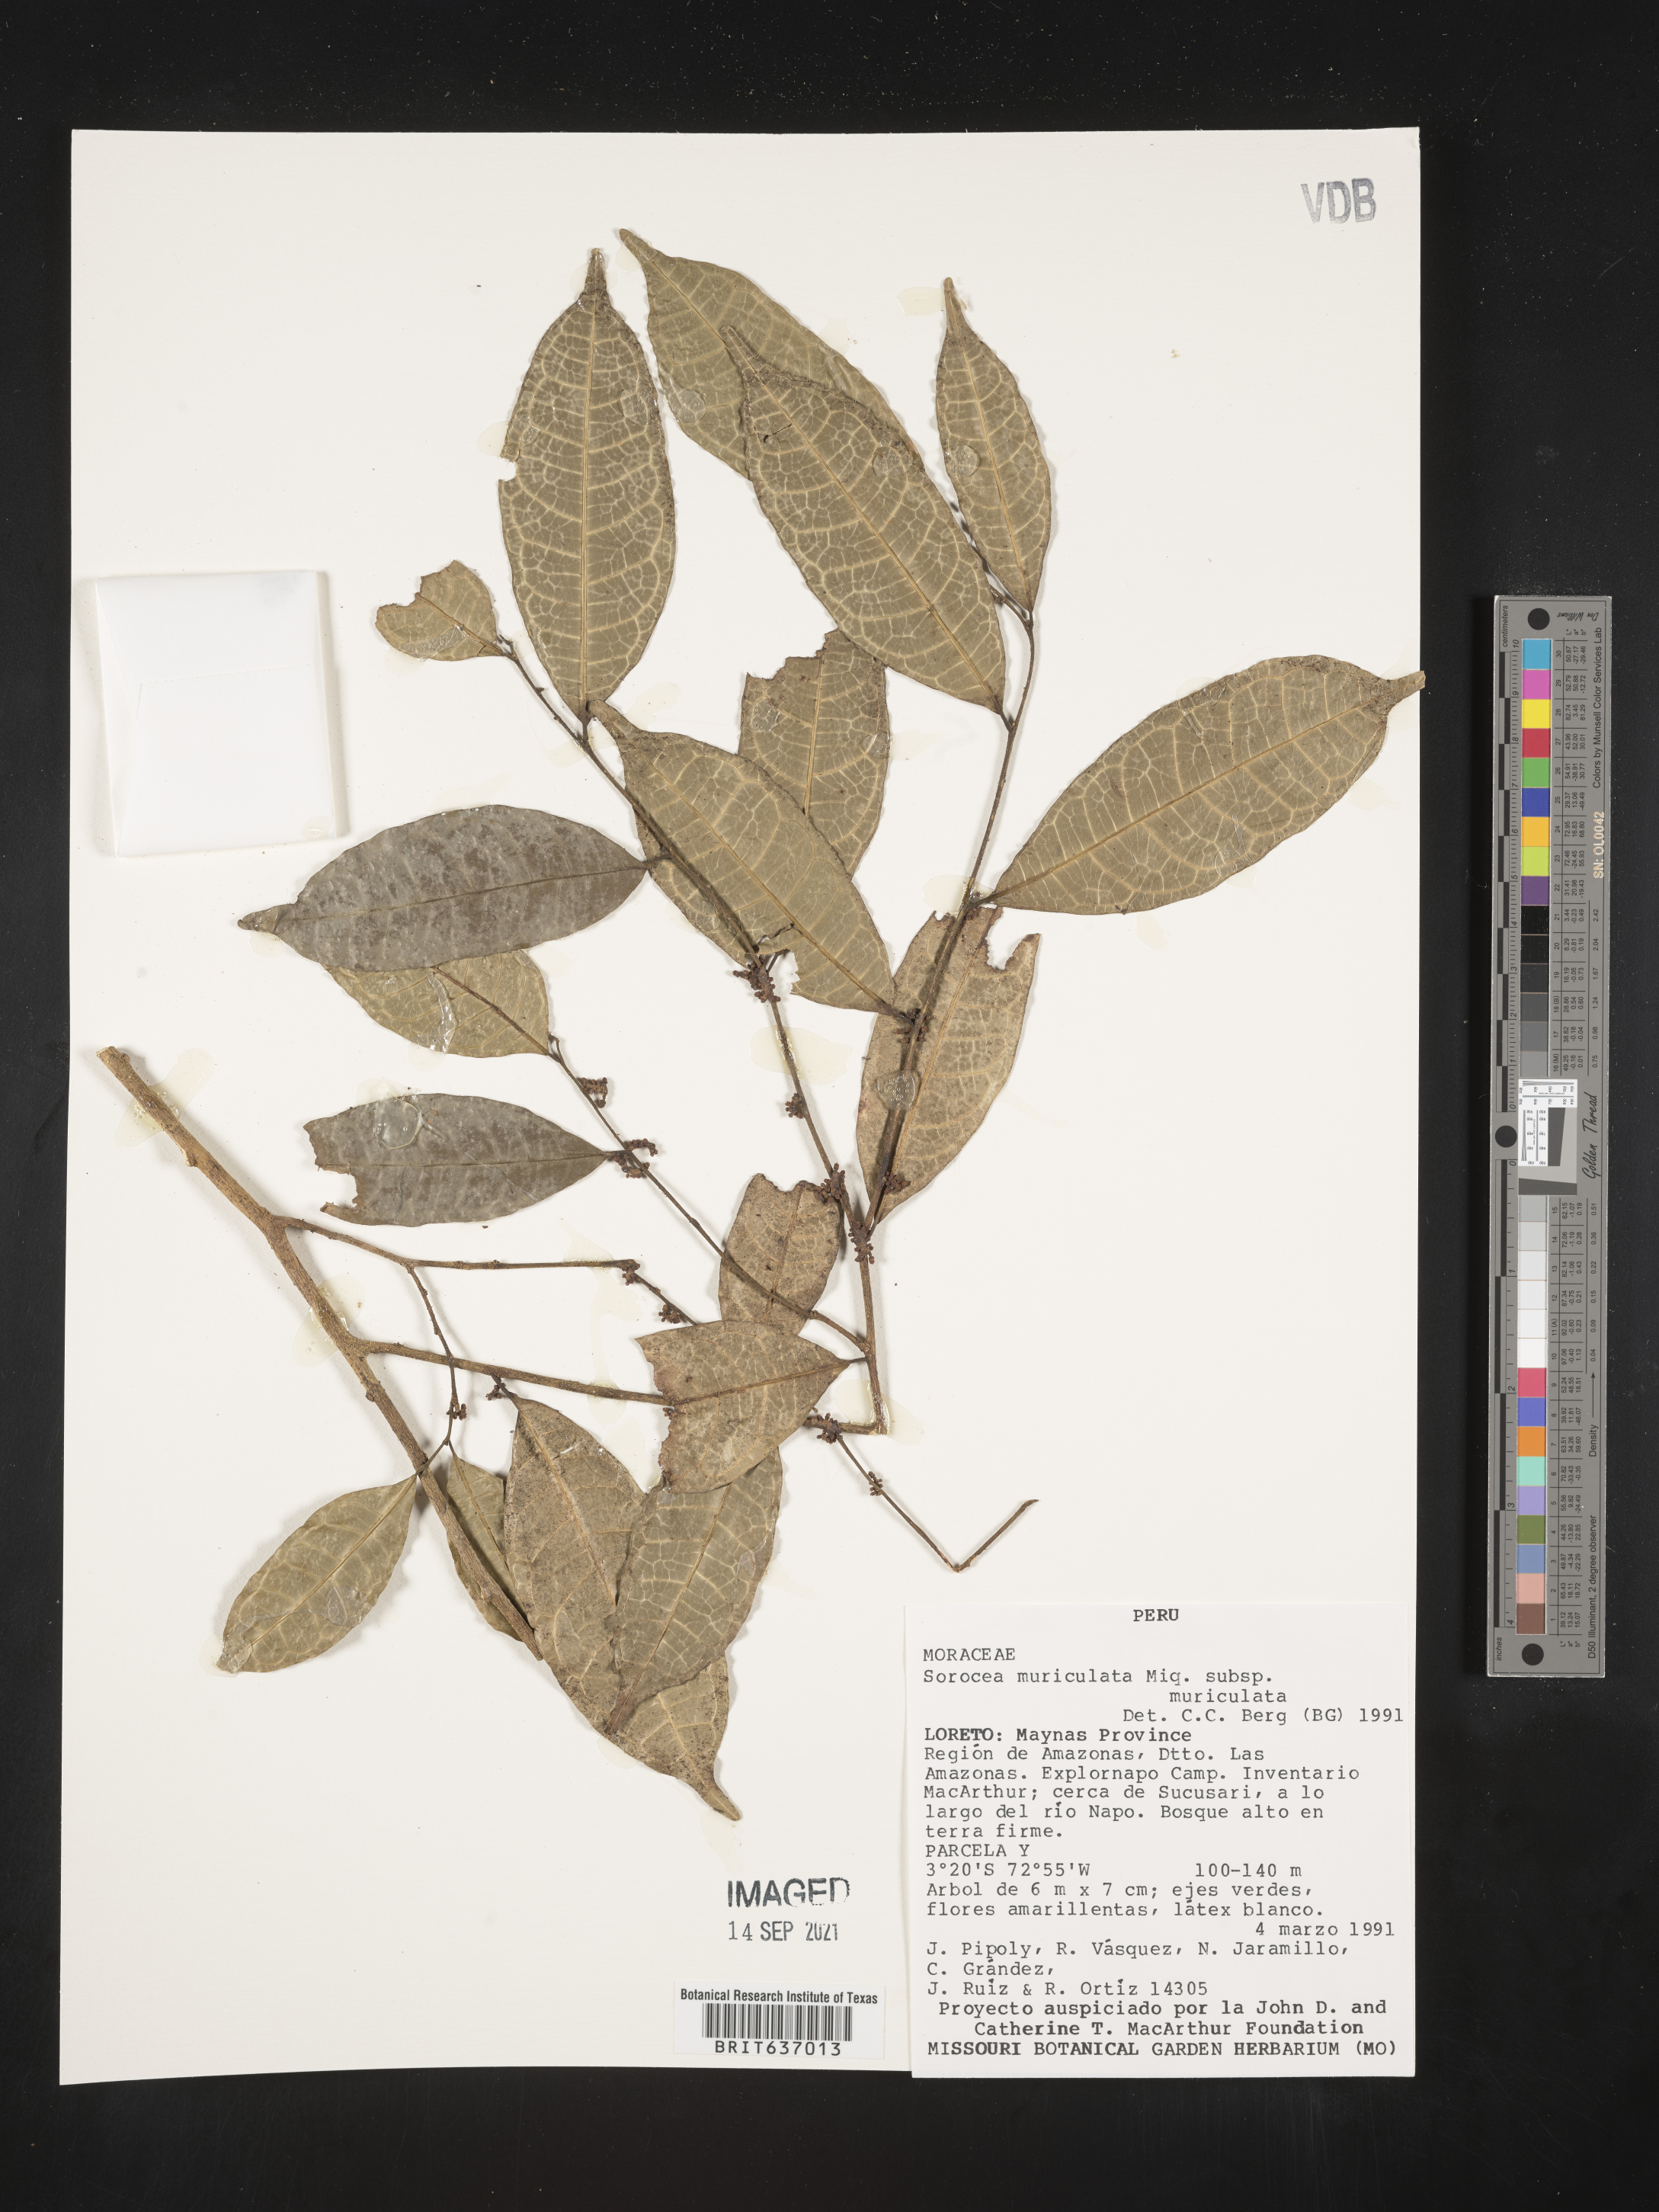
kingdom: Plantae
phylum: Tracheophyta
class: Magnoliopsida
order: Rosales
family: Moraceae
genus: Sorocea
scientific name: Sorocea
